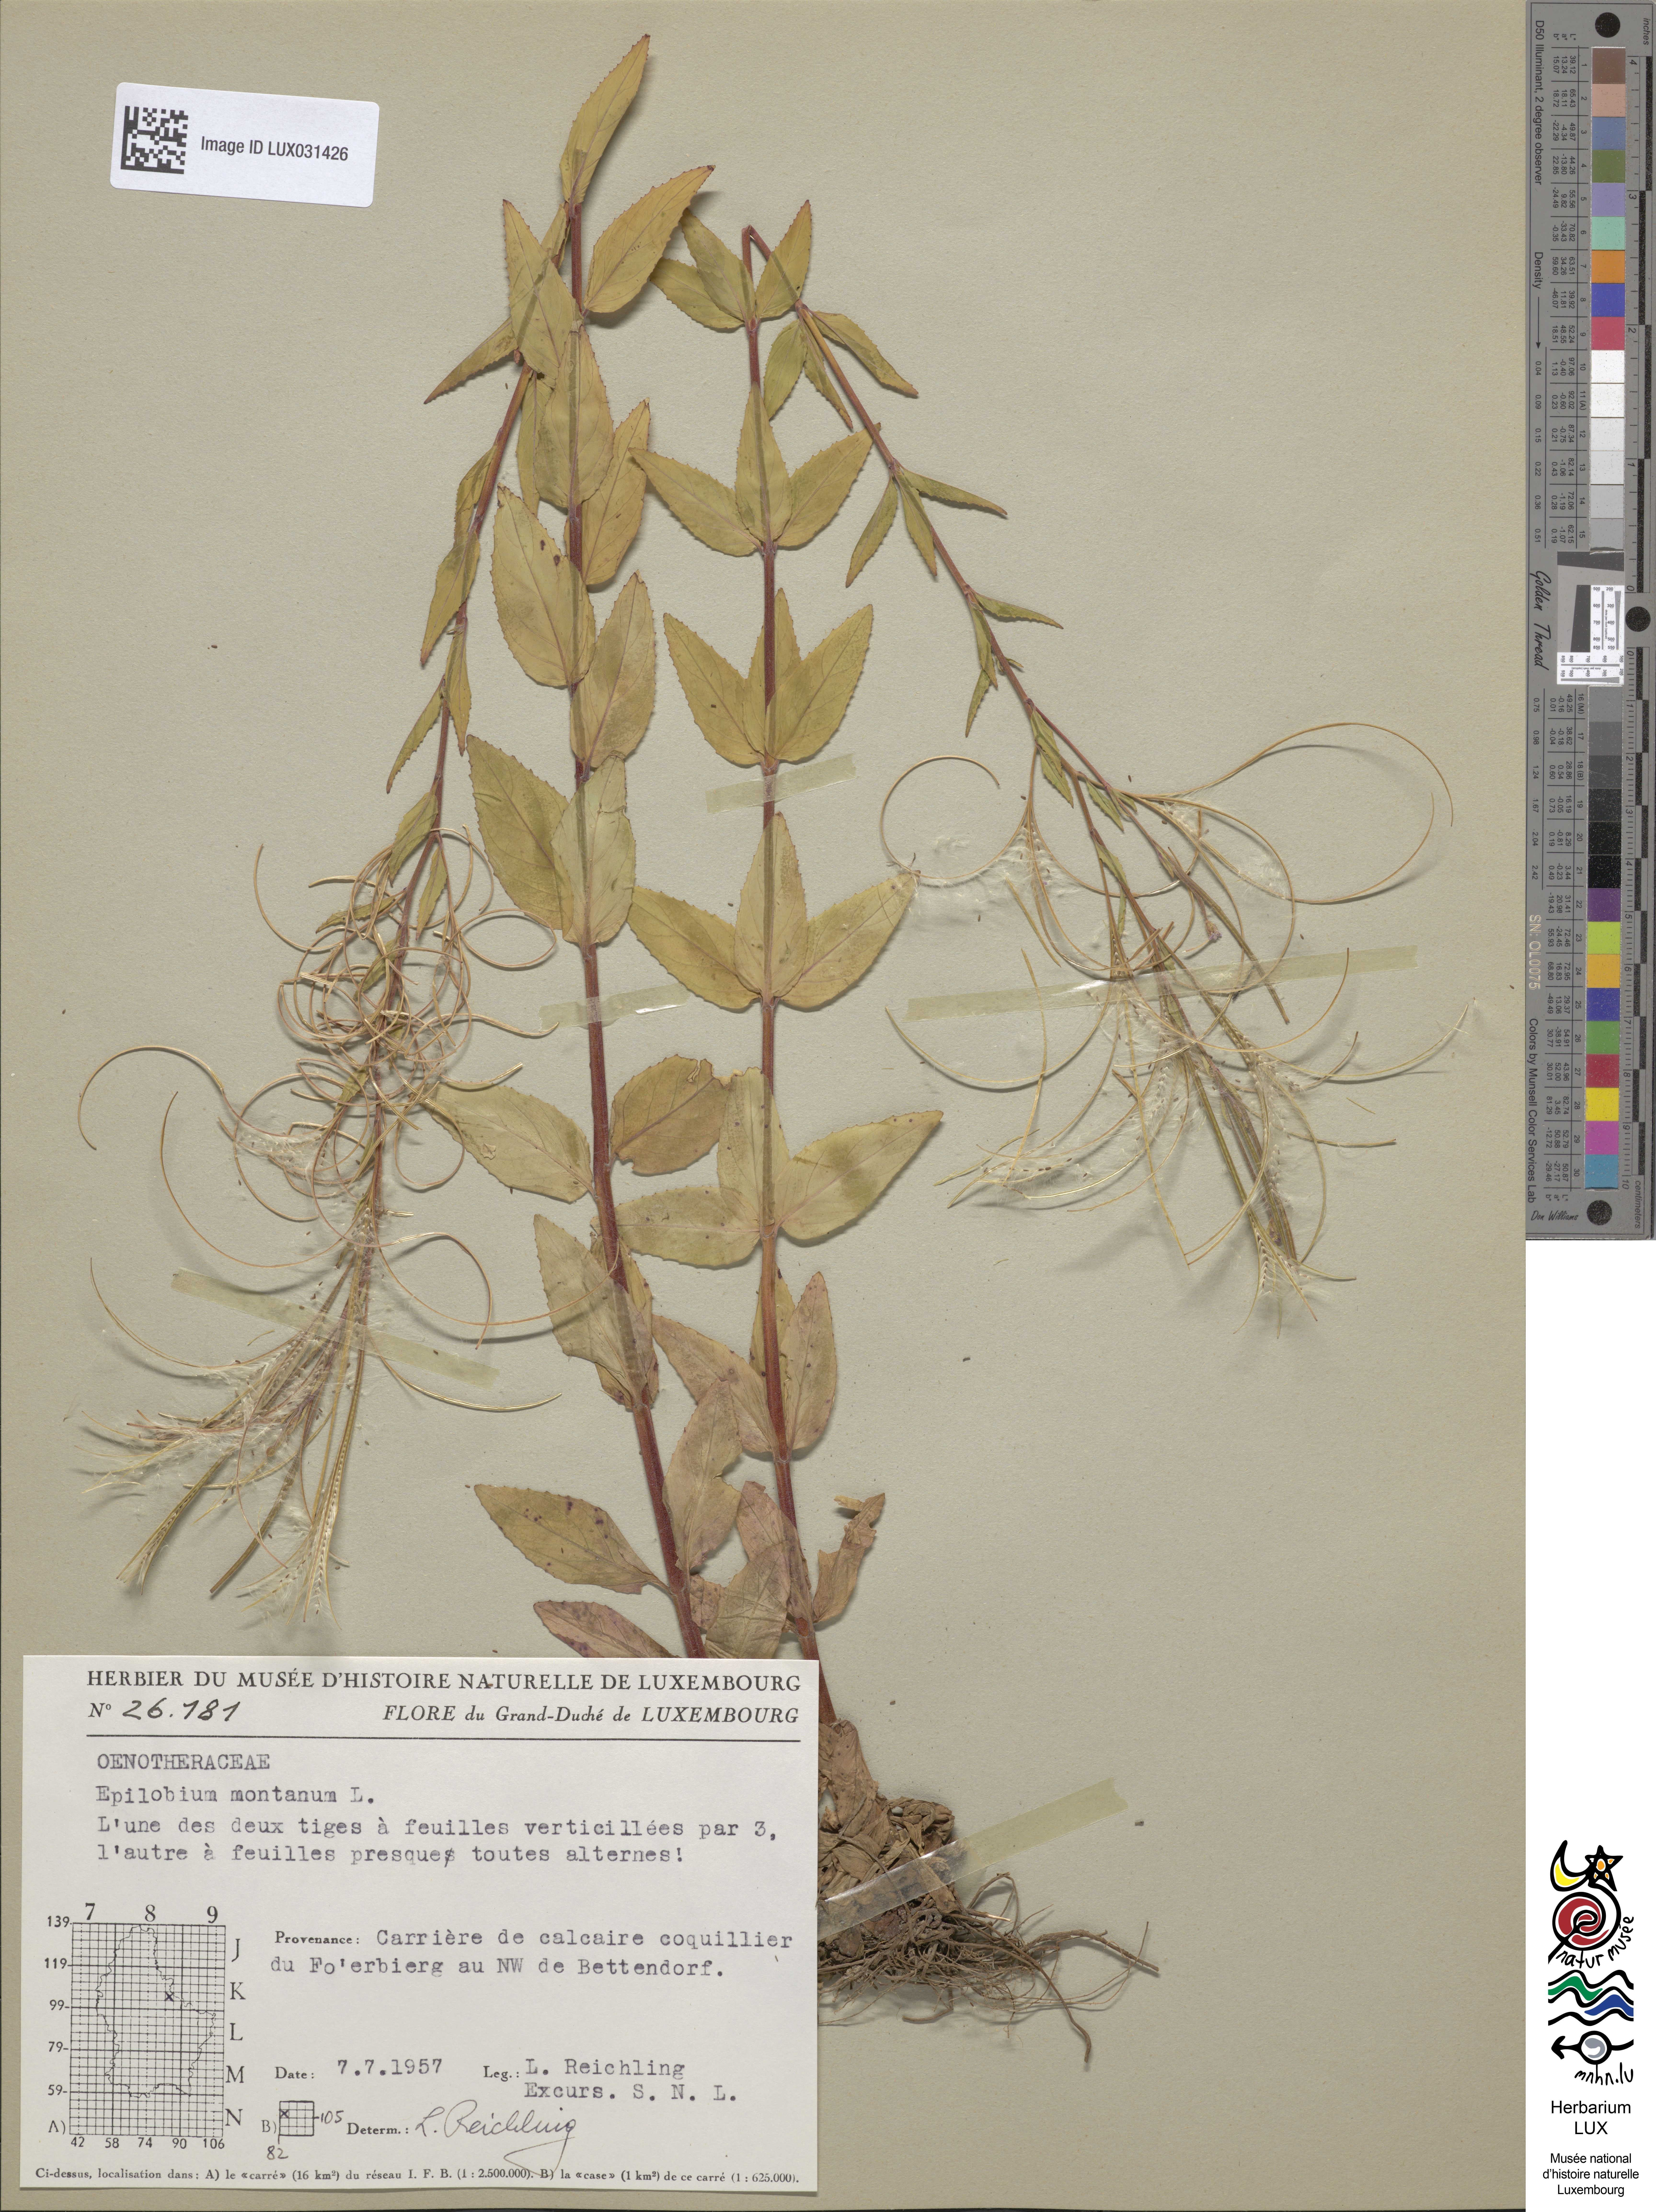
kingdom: Plantae
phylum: Tracheophyta
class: Magnoliopsida
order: Myrtales
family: Onagraceae
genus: Epilobium
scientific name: Epilobium montanum
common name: Broad-leaved willowherb
